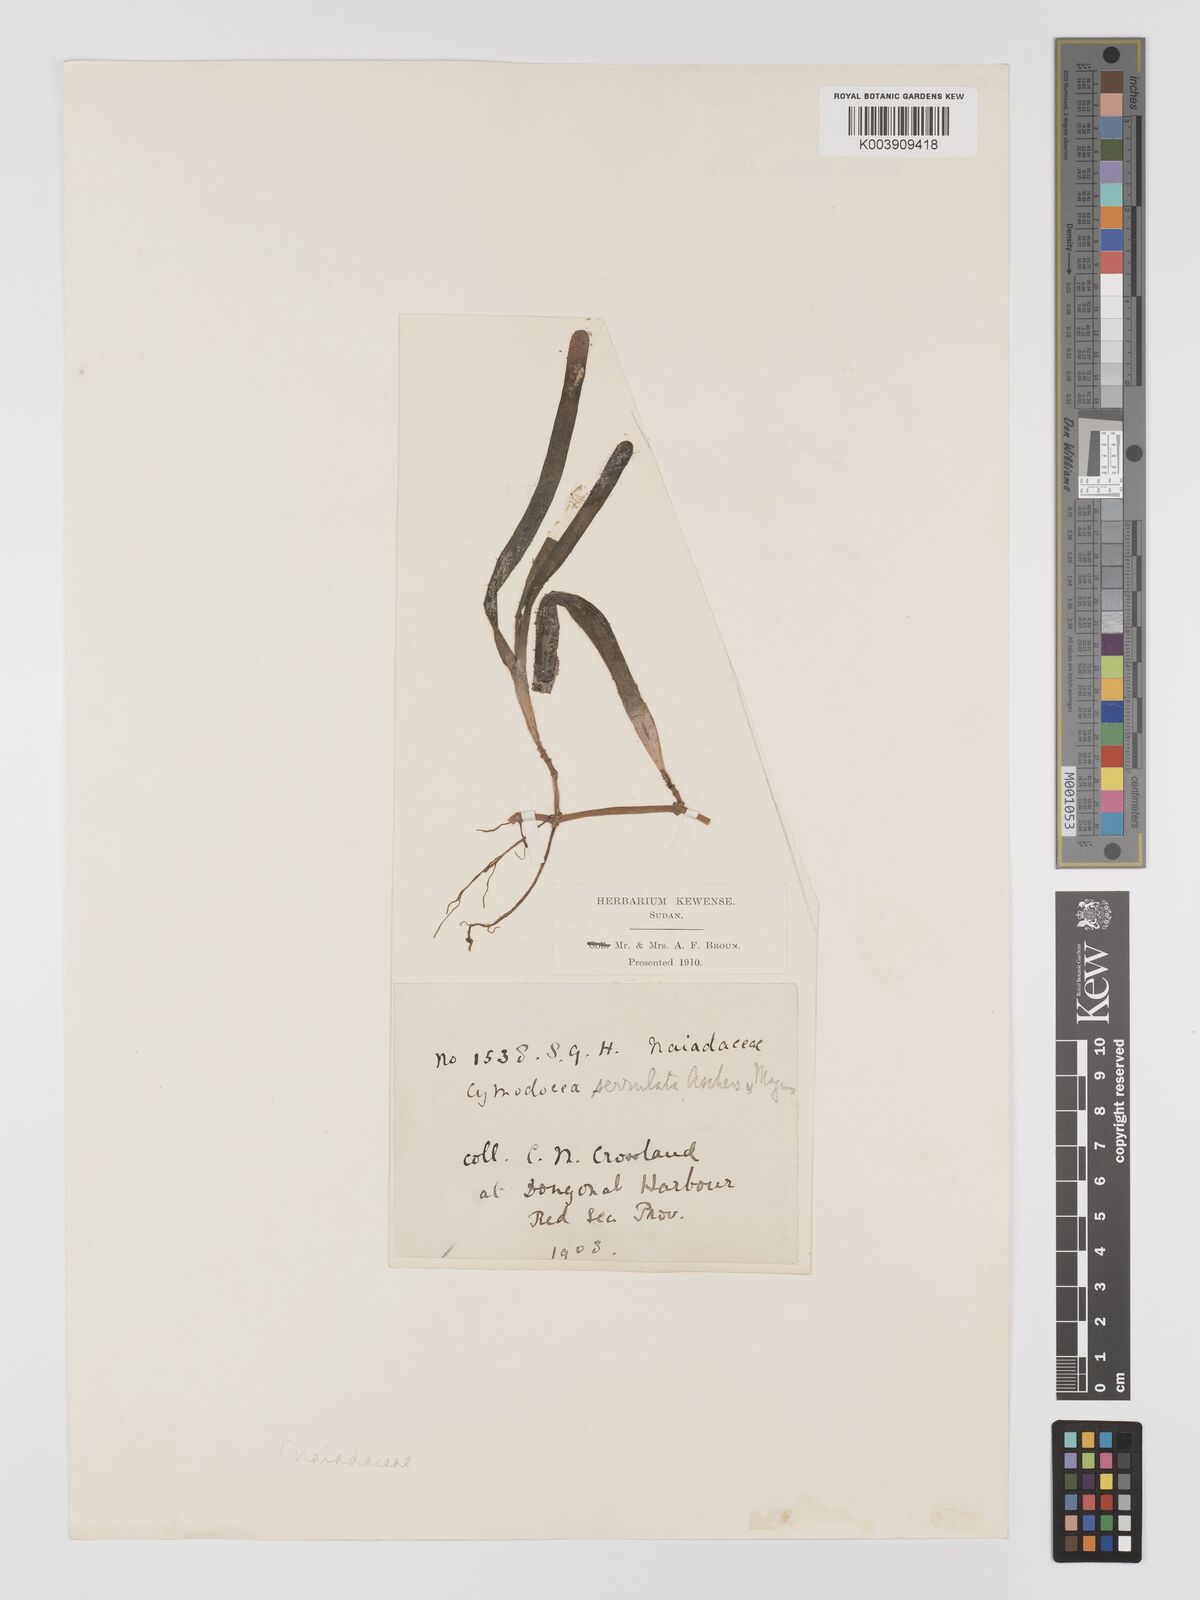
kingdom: Plantae
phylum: Tracheophyta
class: Liliopsida
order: Alismatales
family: Cymodoceaceae
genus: Oceana
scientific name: Oceana serrulata
